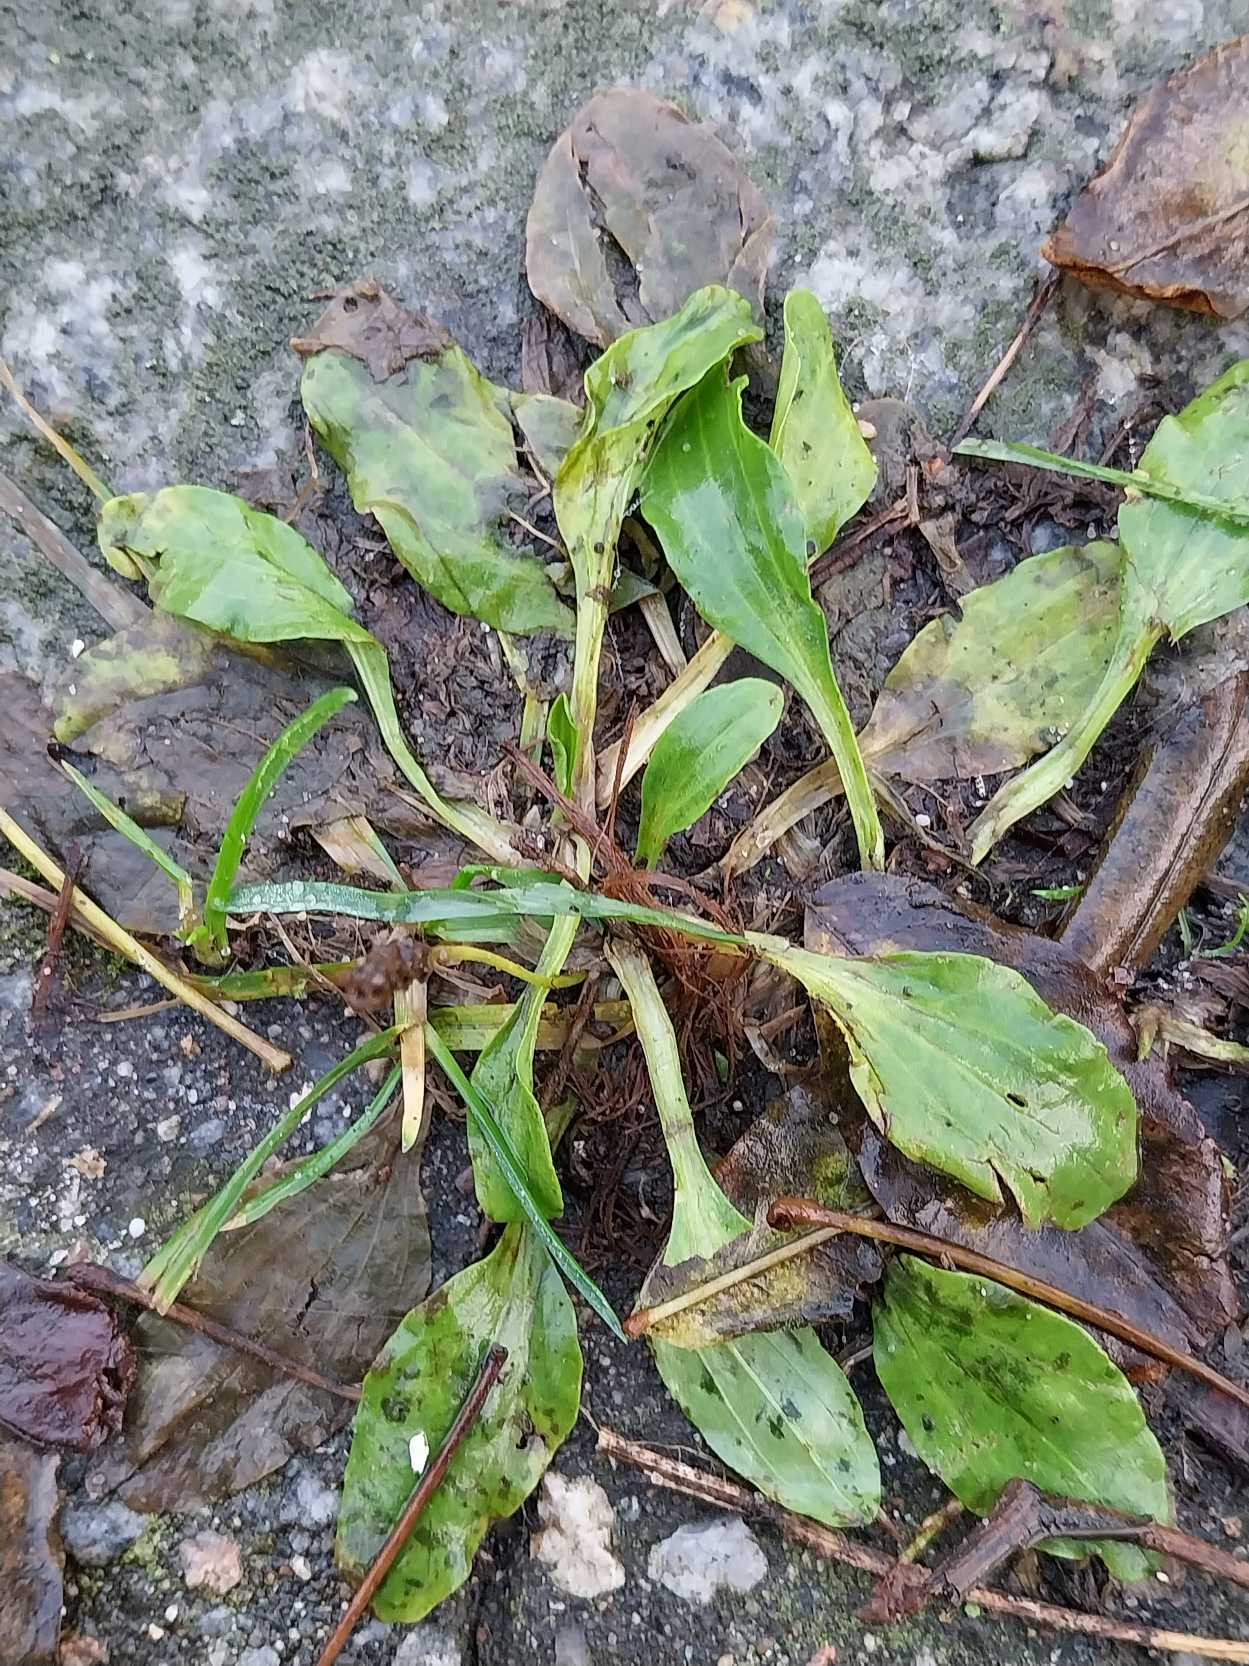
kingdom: Plantae
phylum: Tracheophyta
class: Magnoliopsida
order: Lamiales
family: Plantaginaceae
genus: Plantago
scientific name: Plantago major
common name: Glat vejbred
